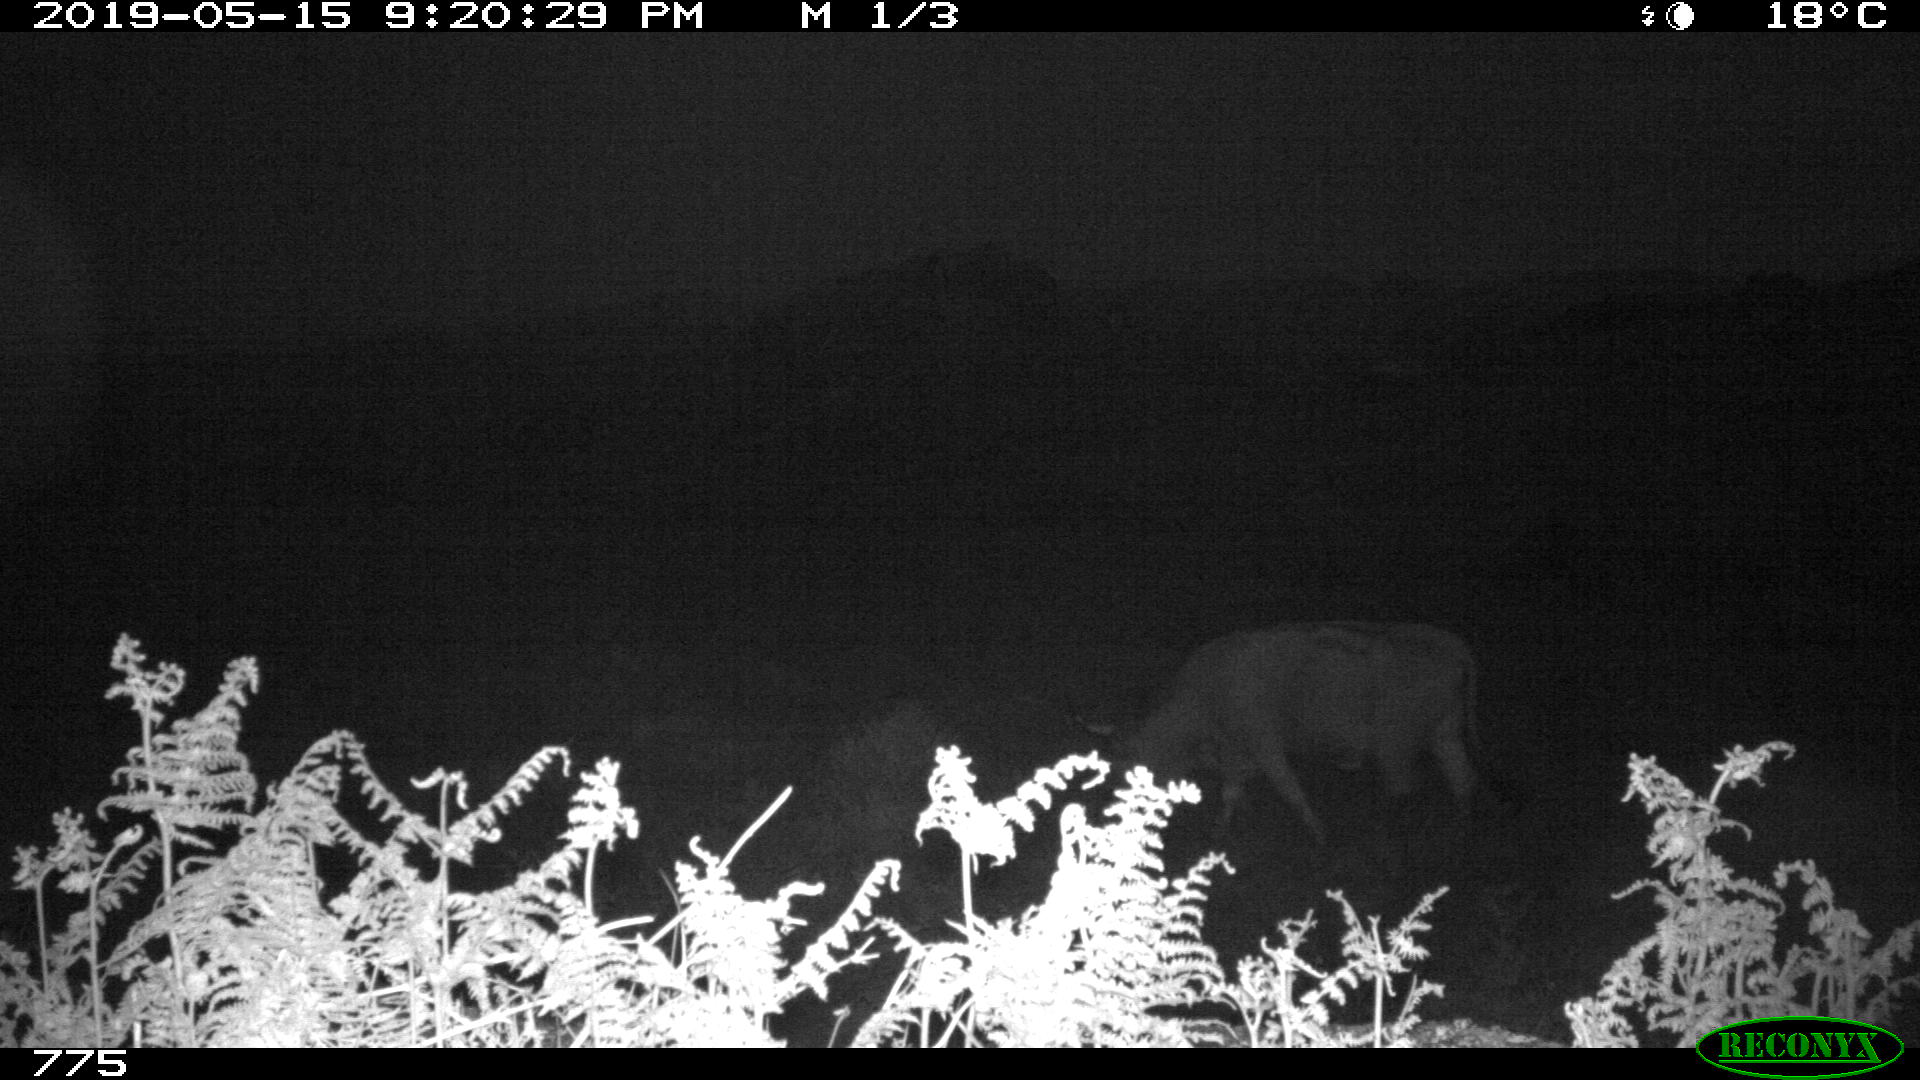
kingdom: Animalia
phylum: Chordata
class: Mammalia
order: Artiodactyla
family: Bovidae
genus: Bos
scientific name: Bos taurus
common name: Domesticated cattle
